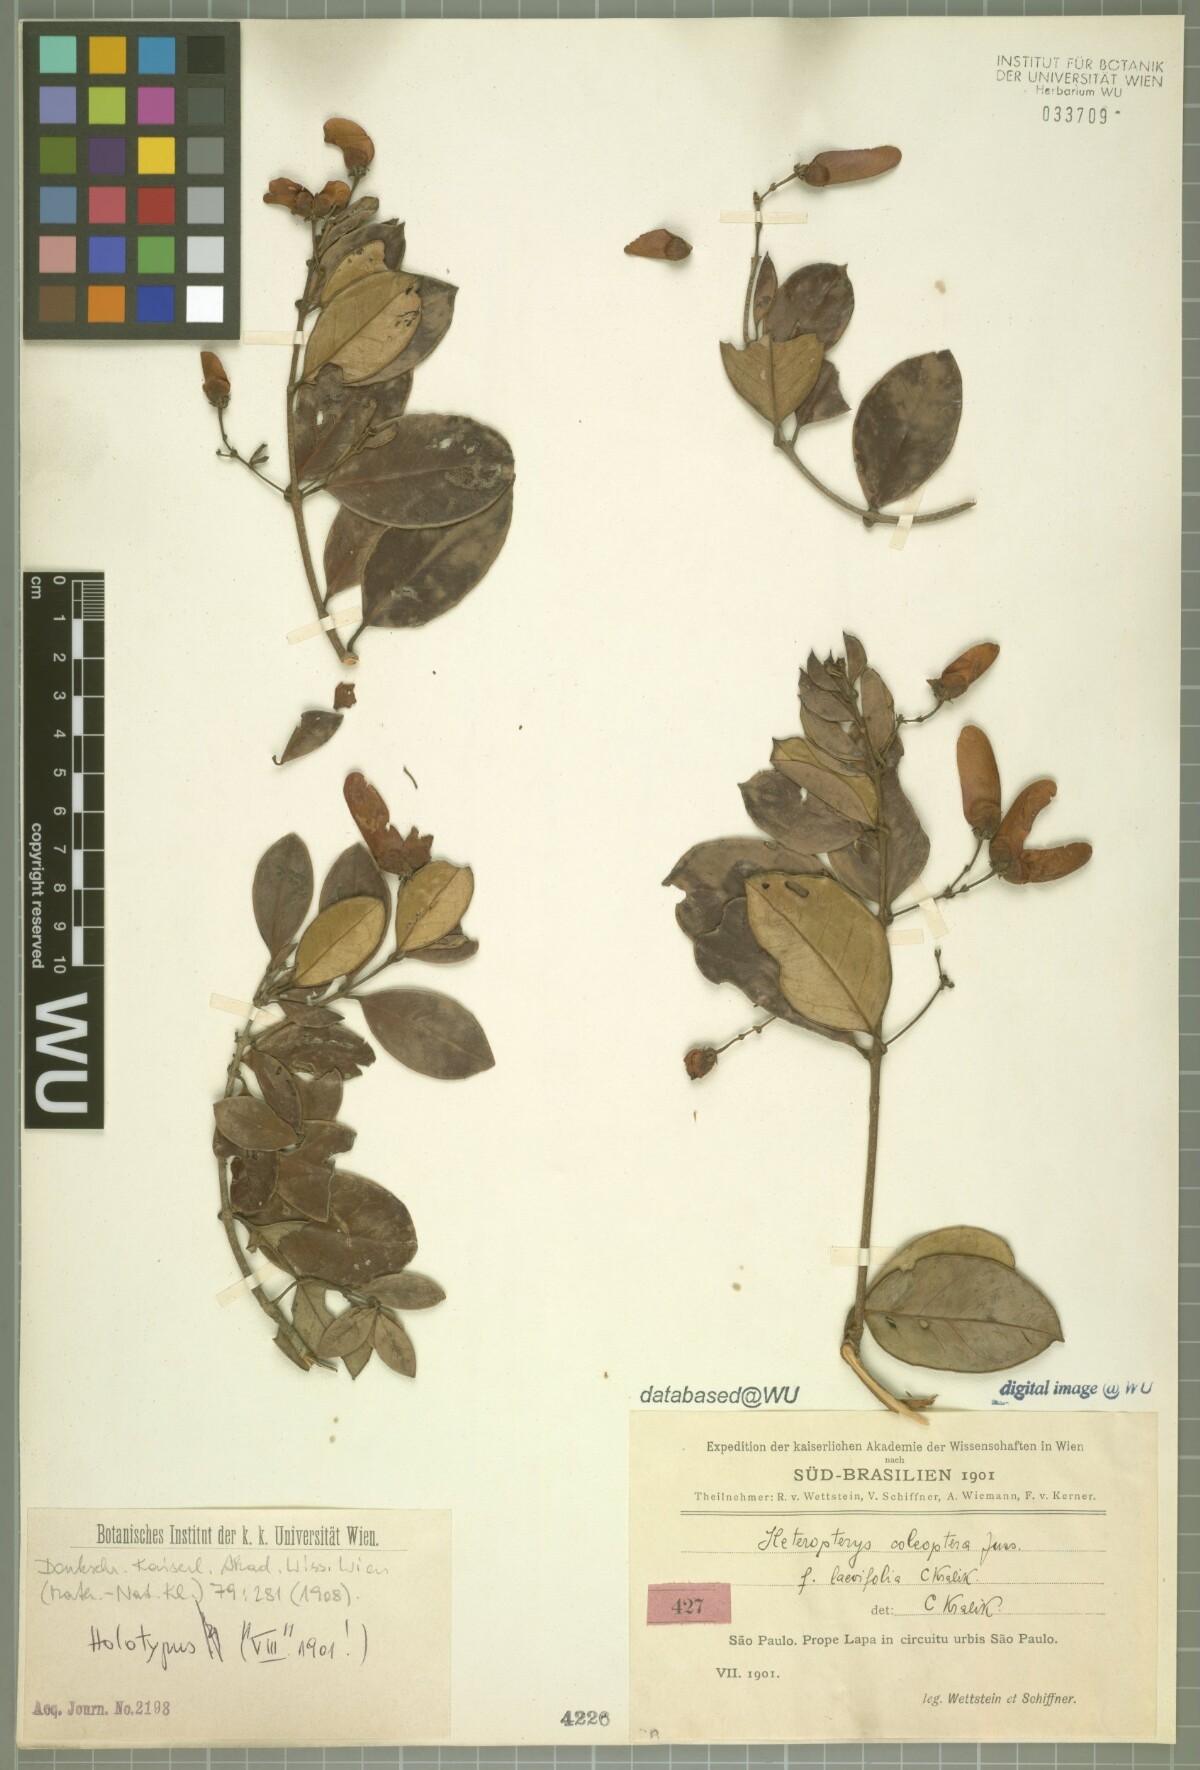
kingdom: Plantae
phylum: Tracheophyta
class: Magnoliopsida
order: Malpighiales
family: Malpighiaceae
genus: Heteropterys
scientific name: Heteropterys coleoptera
